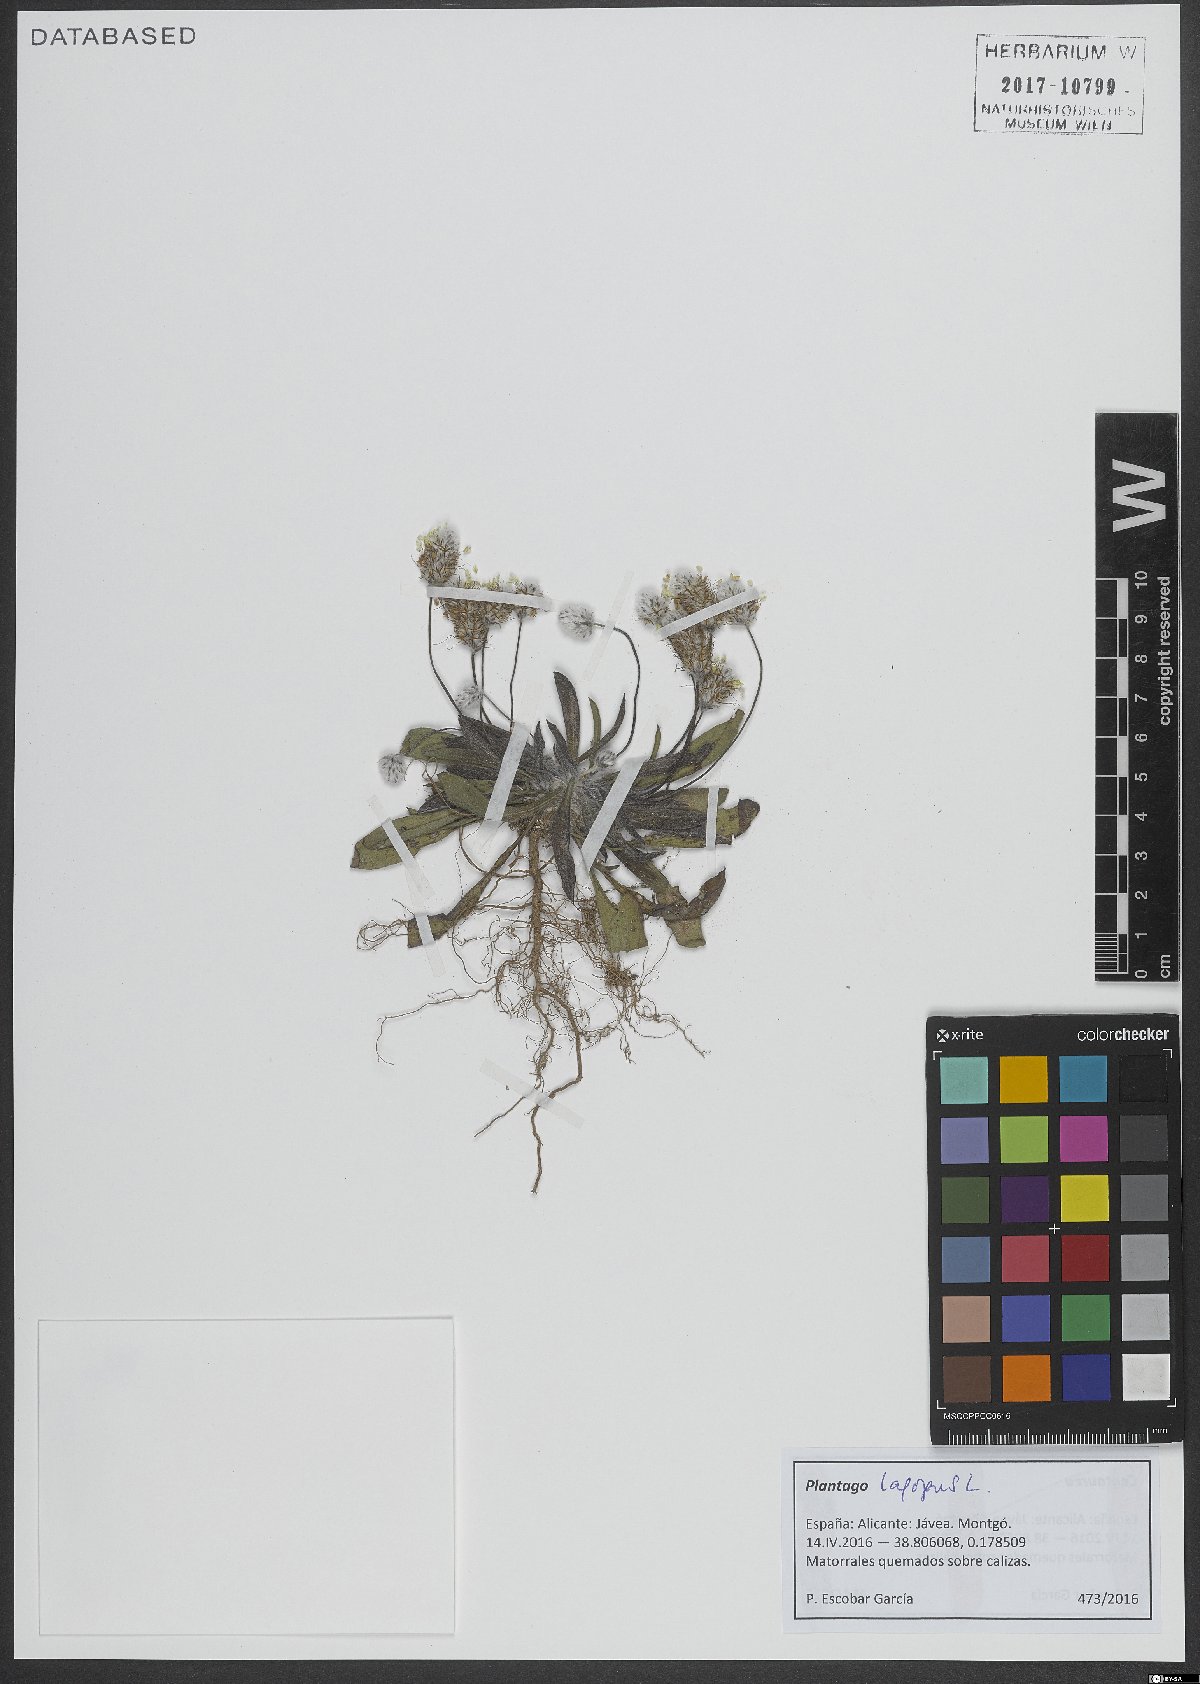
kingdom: Plantae
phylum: Tracheophyta
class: Magnoliopsida
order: Lamiales
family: Plantaginaceae
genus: Plantago
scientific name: Plantago lagopus
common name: Hare-foot plantain
